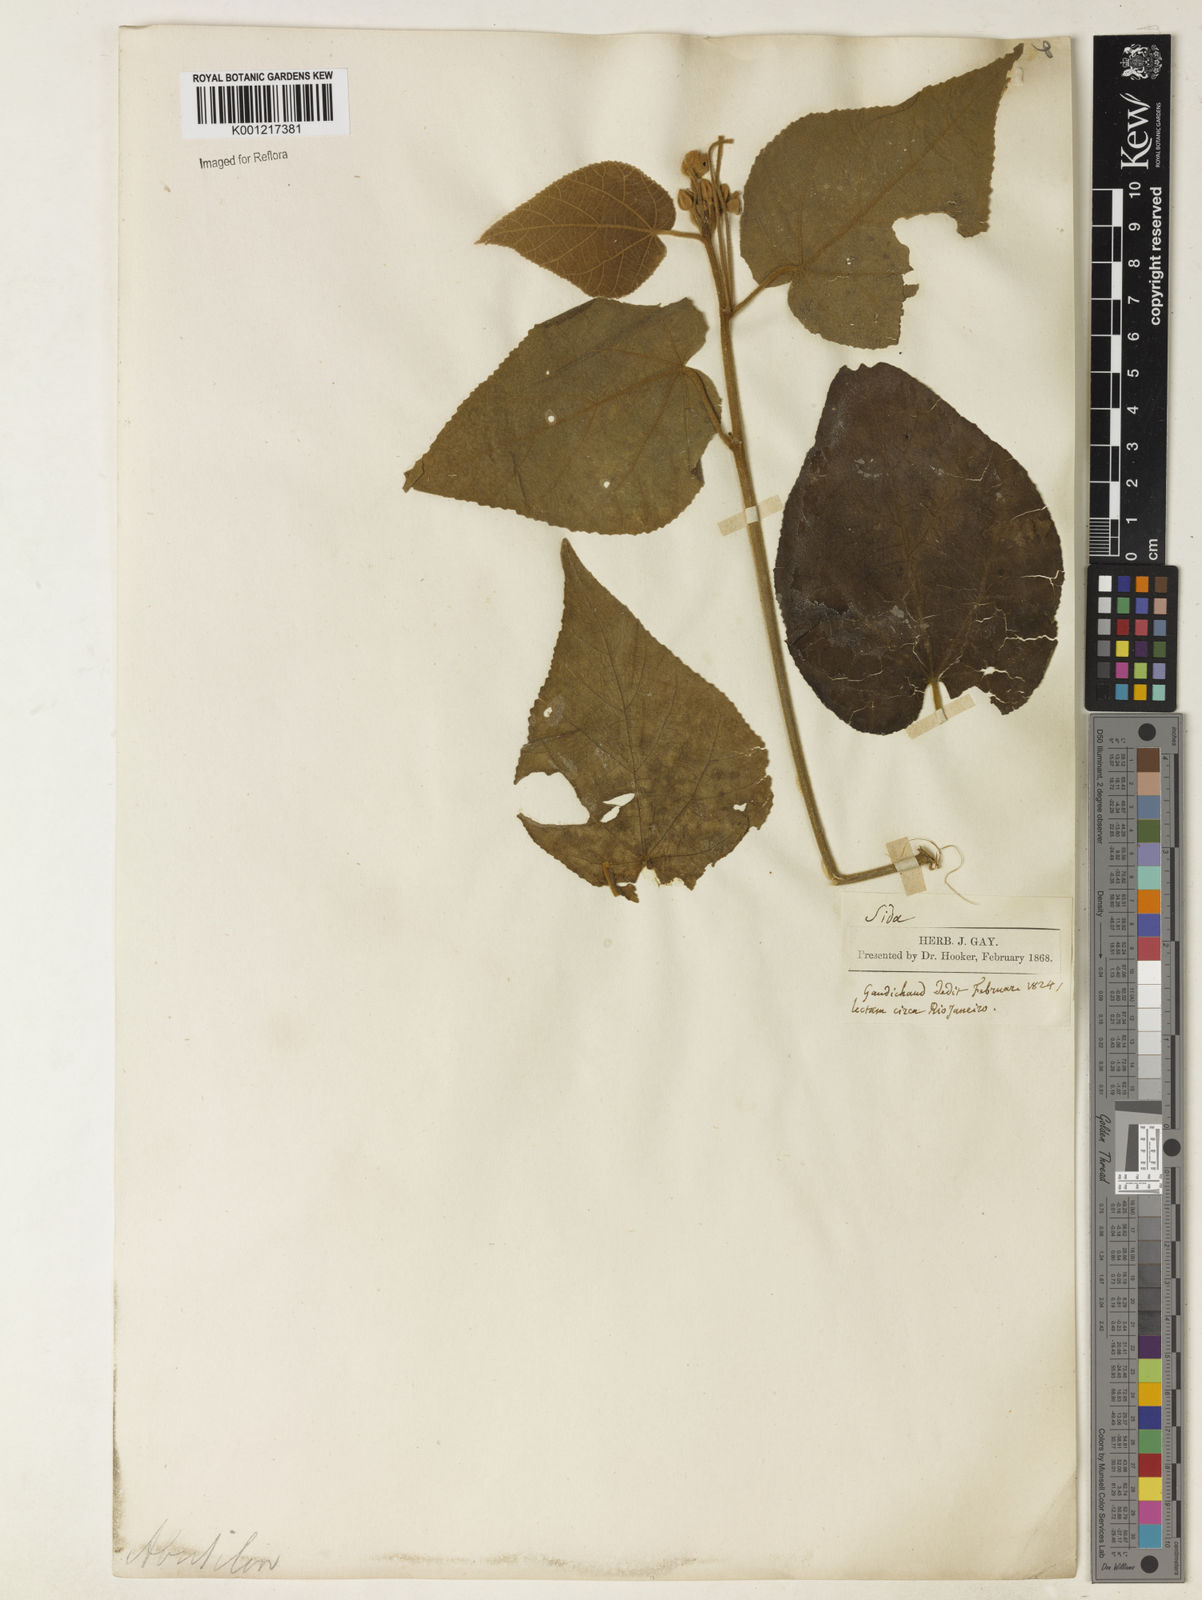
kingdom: Plantae
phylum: Tracheophyta
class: Magnoliopsida
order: Malvales
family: Malvaceae
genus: Abutilon
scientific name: Abutilon
